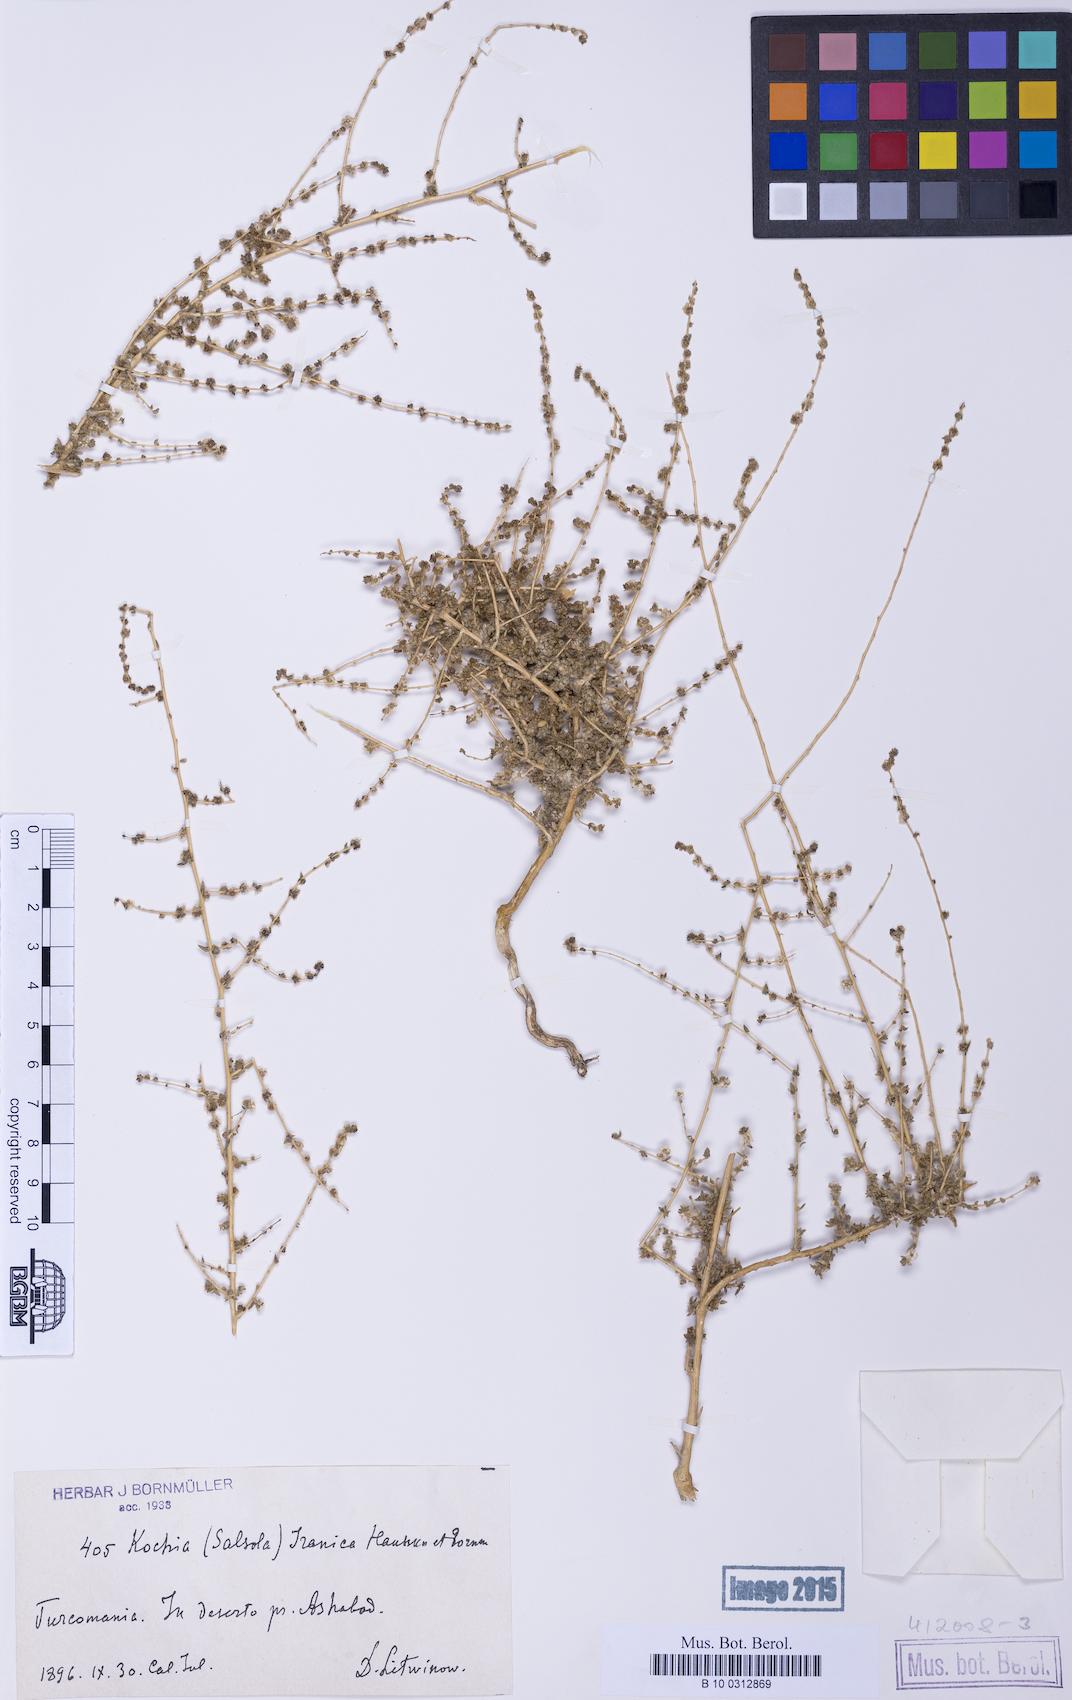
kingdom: Plantae
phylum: Tracheophyta
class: Magnoliopsida
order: Caryophyllales
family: Amaranthaceae
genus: Bassia
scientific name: Bassia stellaris
